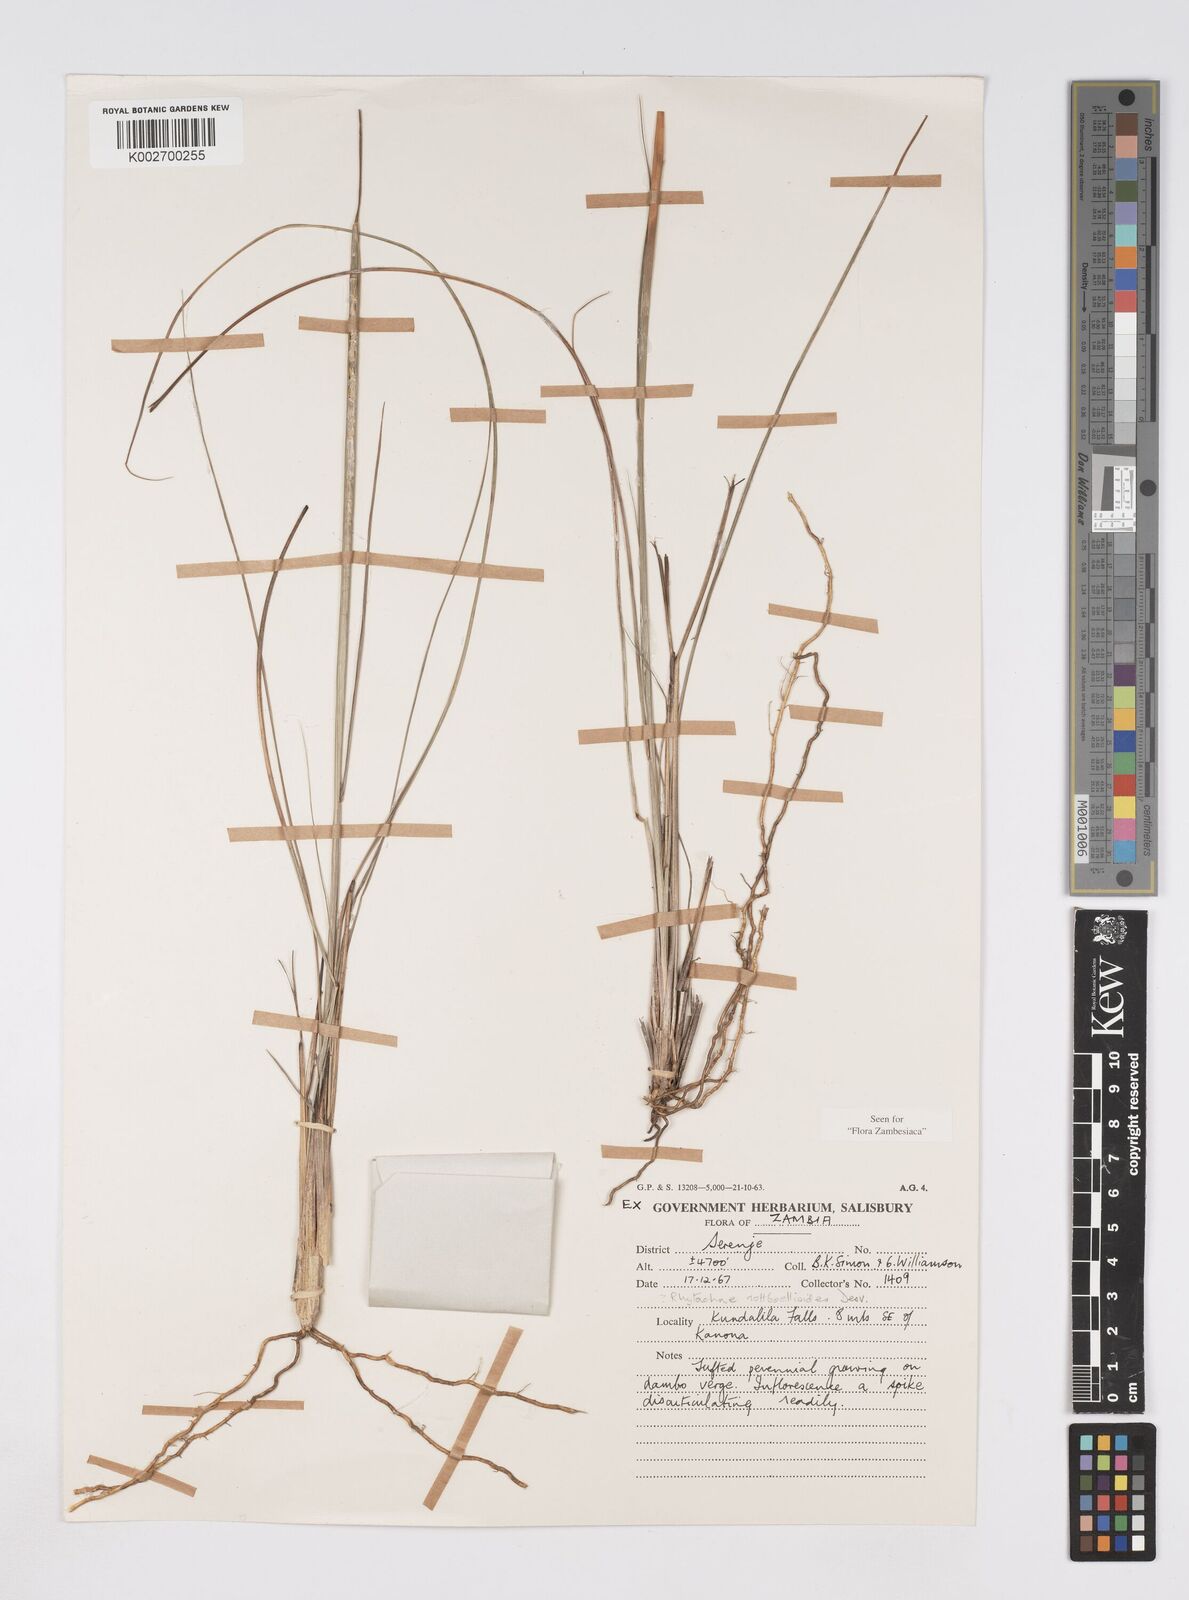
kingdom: Plantae
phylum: Tracheophyta
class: Liliopsida
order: Poales
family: Poaceae
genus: Rhytachne
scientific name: Rhytachne rottboellioides
